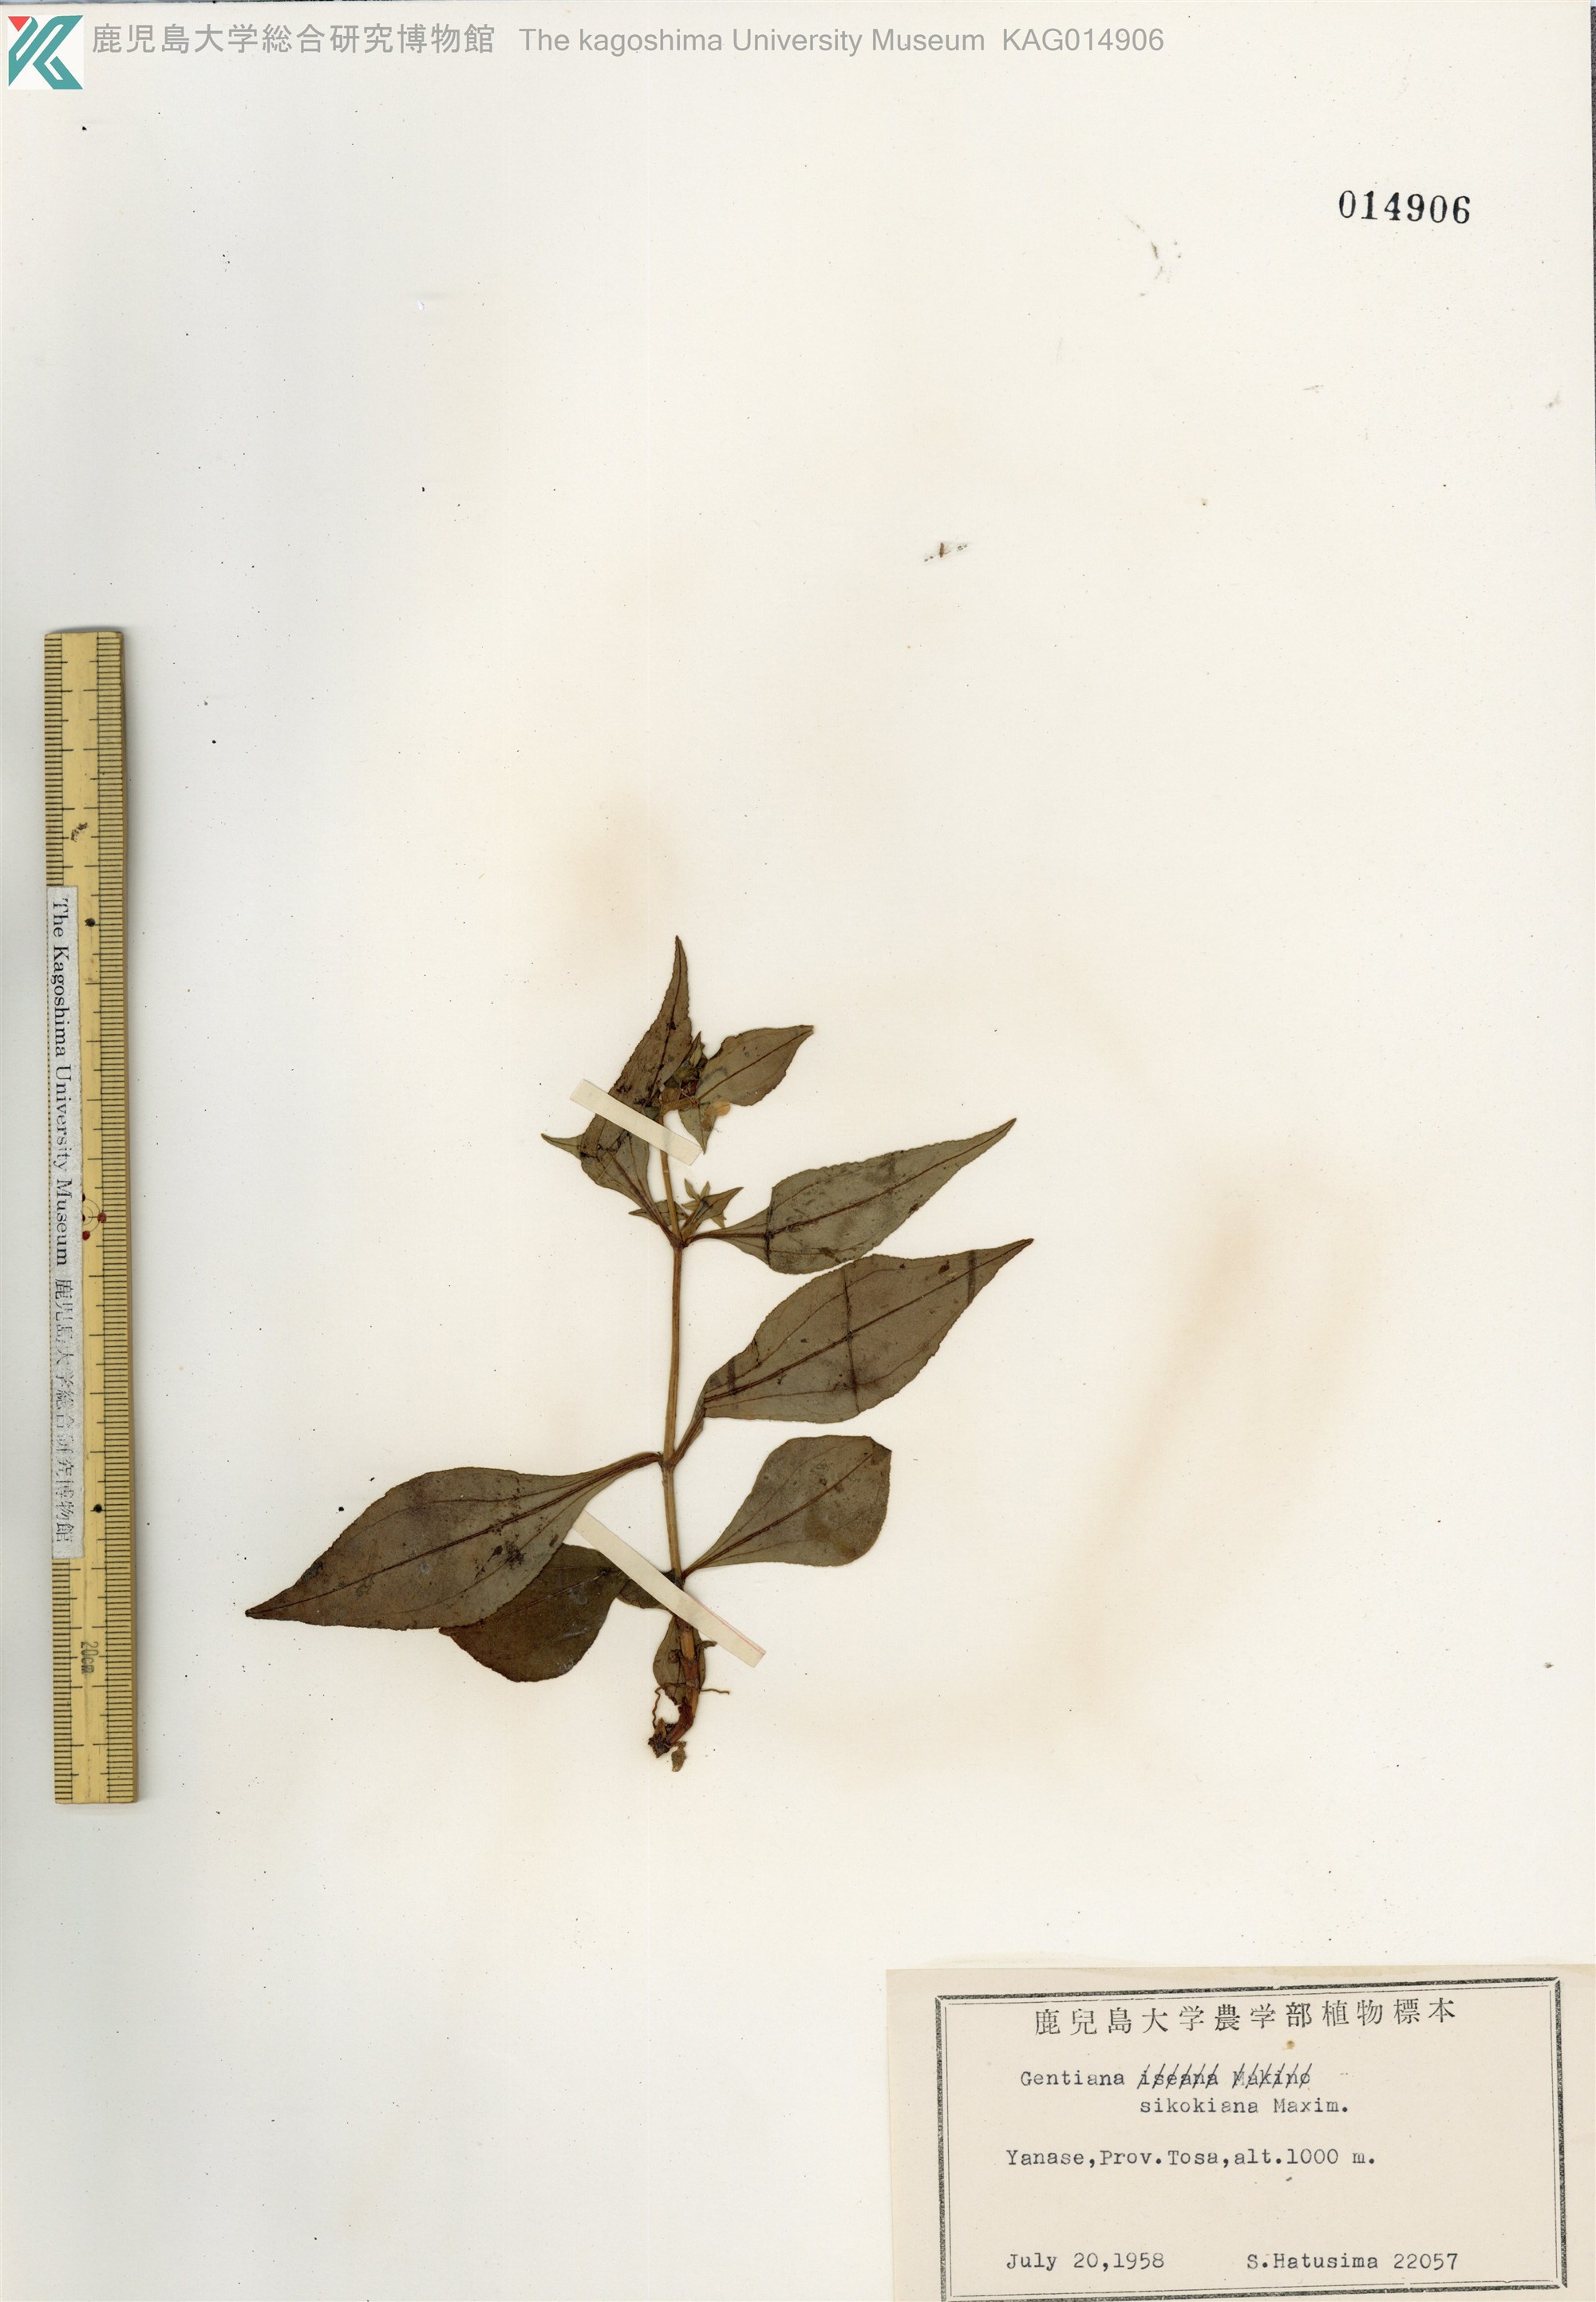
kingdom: Plantae
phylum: Tracheophyta
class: Magnoliopsida
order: Gentianales
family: Gentianaceae
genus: Gentiana
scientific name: Gentiana sikokiana
